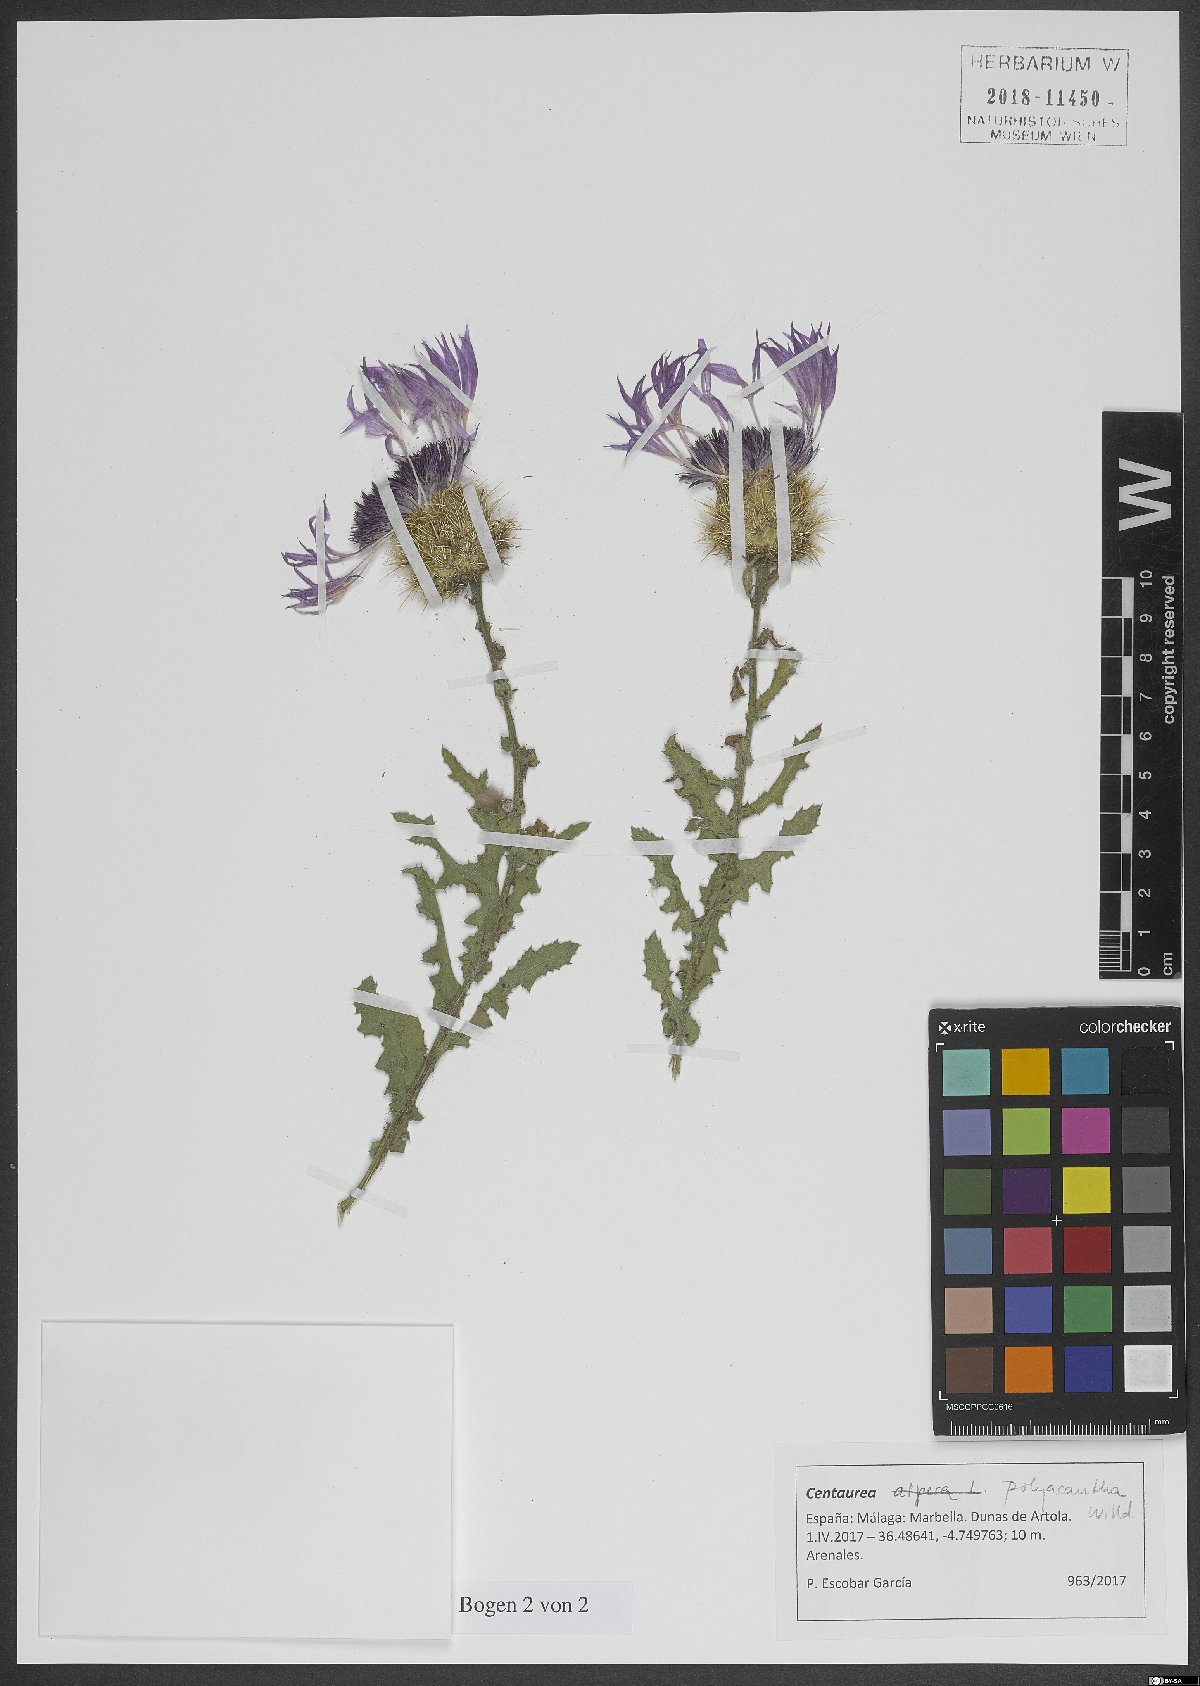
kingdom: Plantae
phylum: Tracheophyta
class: Magnoliopsida
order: Asterales
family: Asteraceae
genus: Centaurea
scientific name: Centaurea polyacantha
